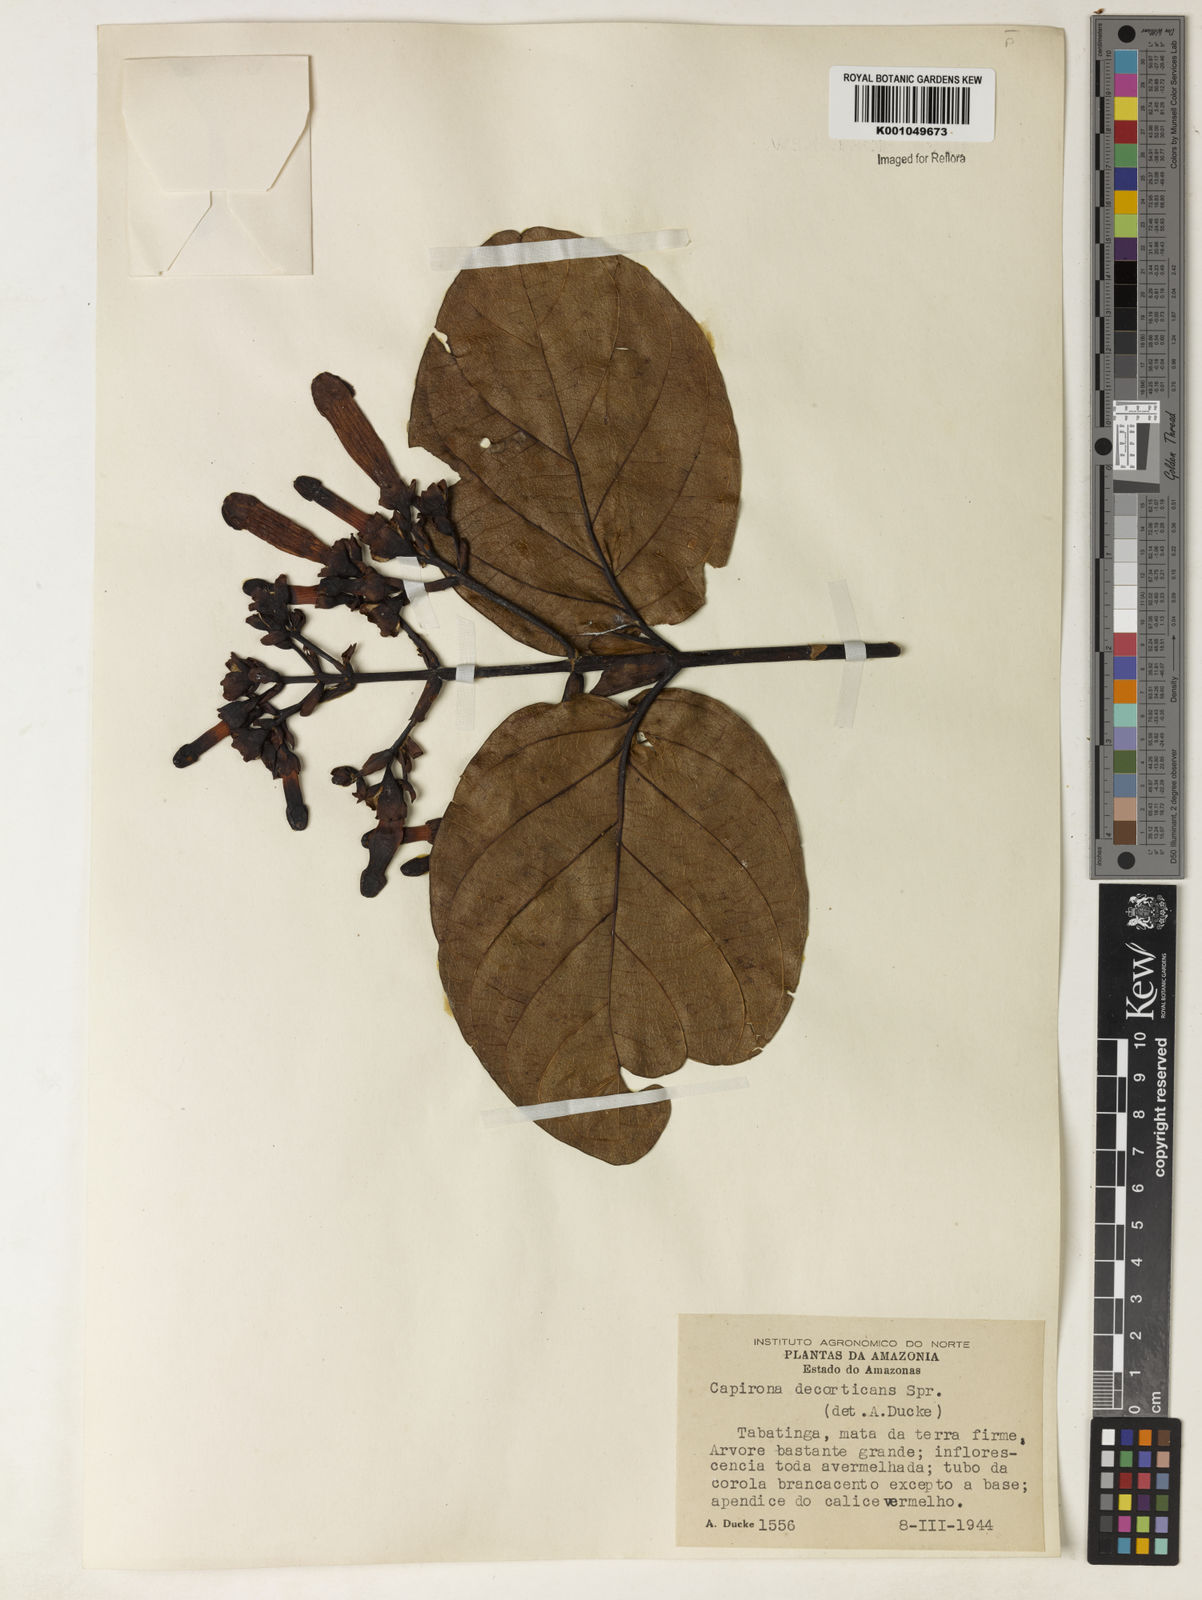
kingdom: Plantae
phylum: Tracheophyta
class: Magnoliopsida
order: Gentianales
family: Rubiaceae
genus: Capirona
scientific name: Capirona macrophylla
